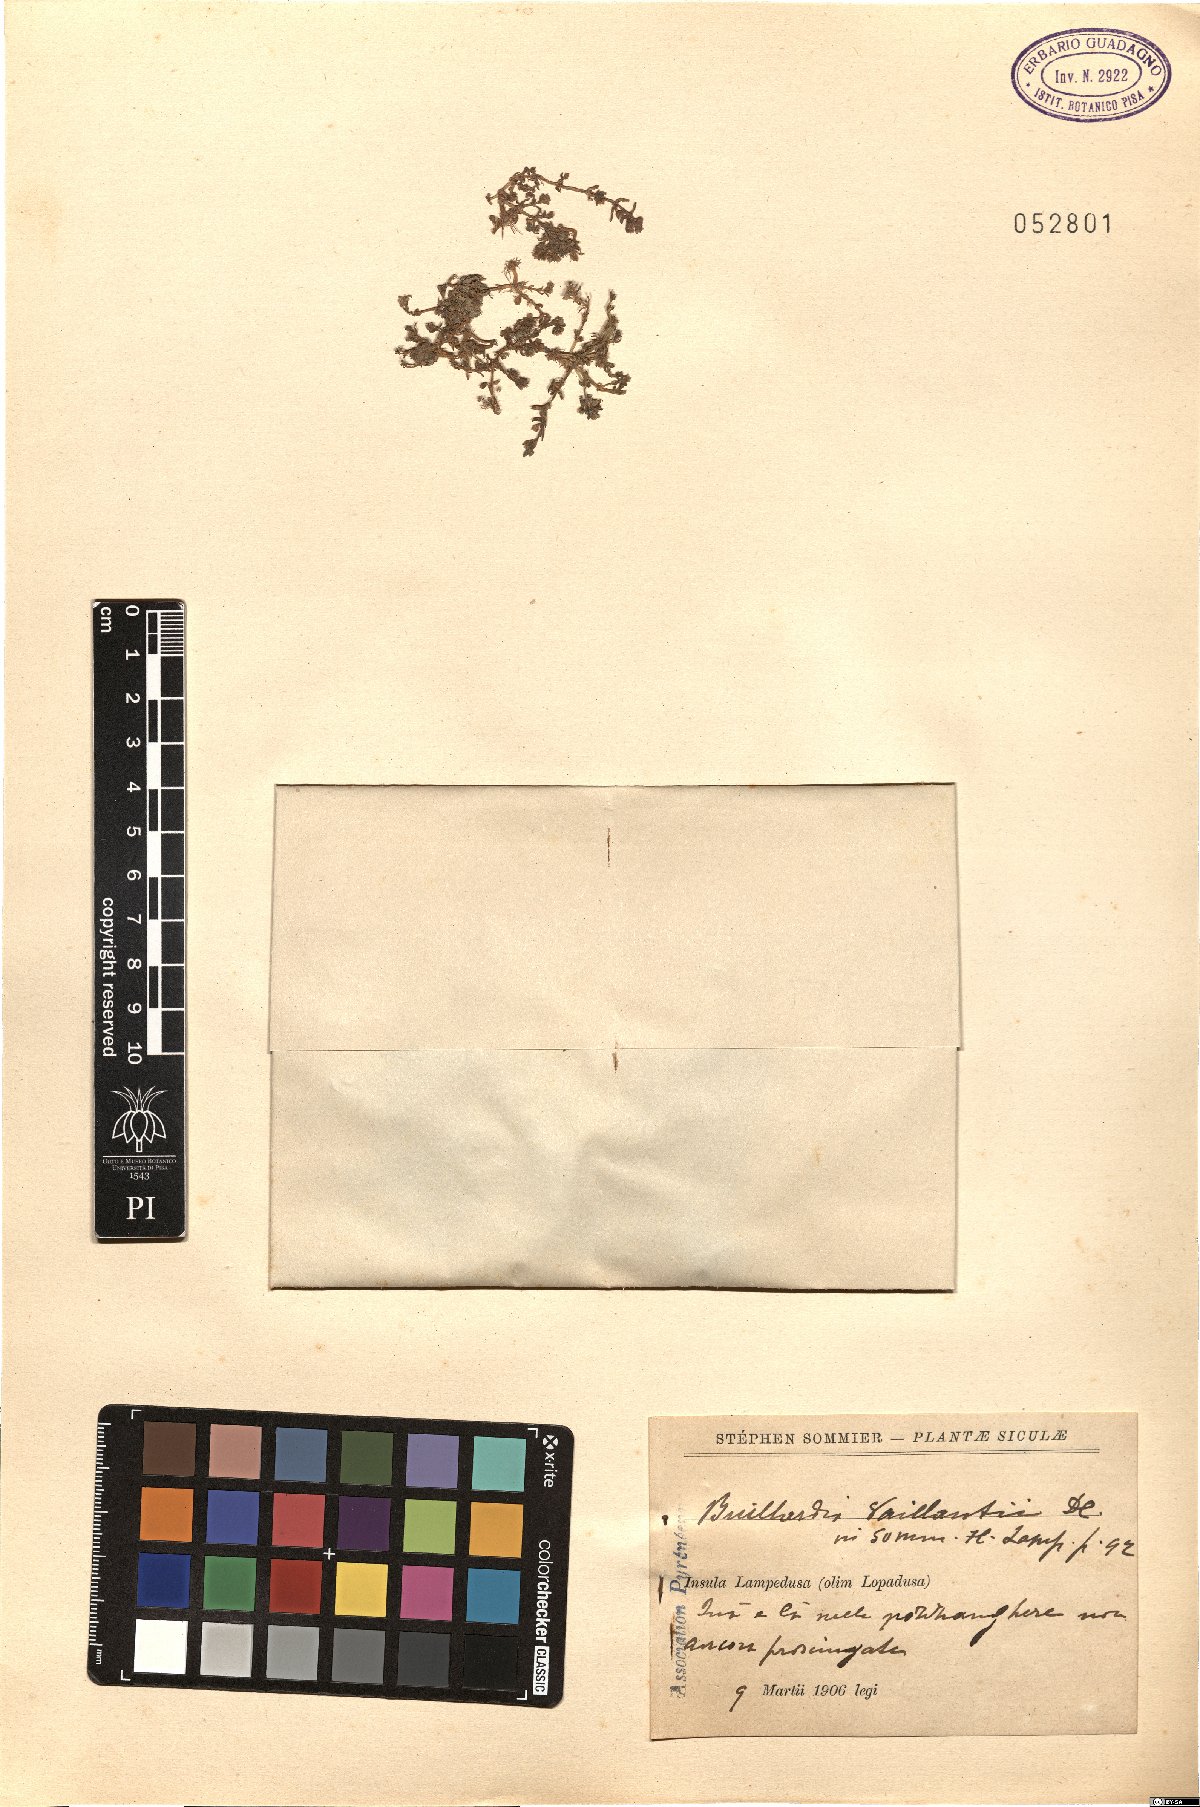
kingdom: Plantae
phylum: Tracheophyta
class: Magnoliopsida
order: Saxifragales
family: Crassulaceae
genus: Crassula
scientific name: Crassula vaillantii
